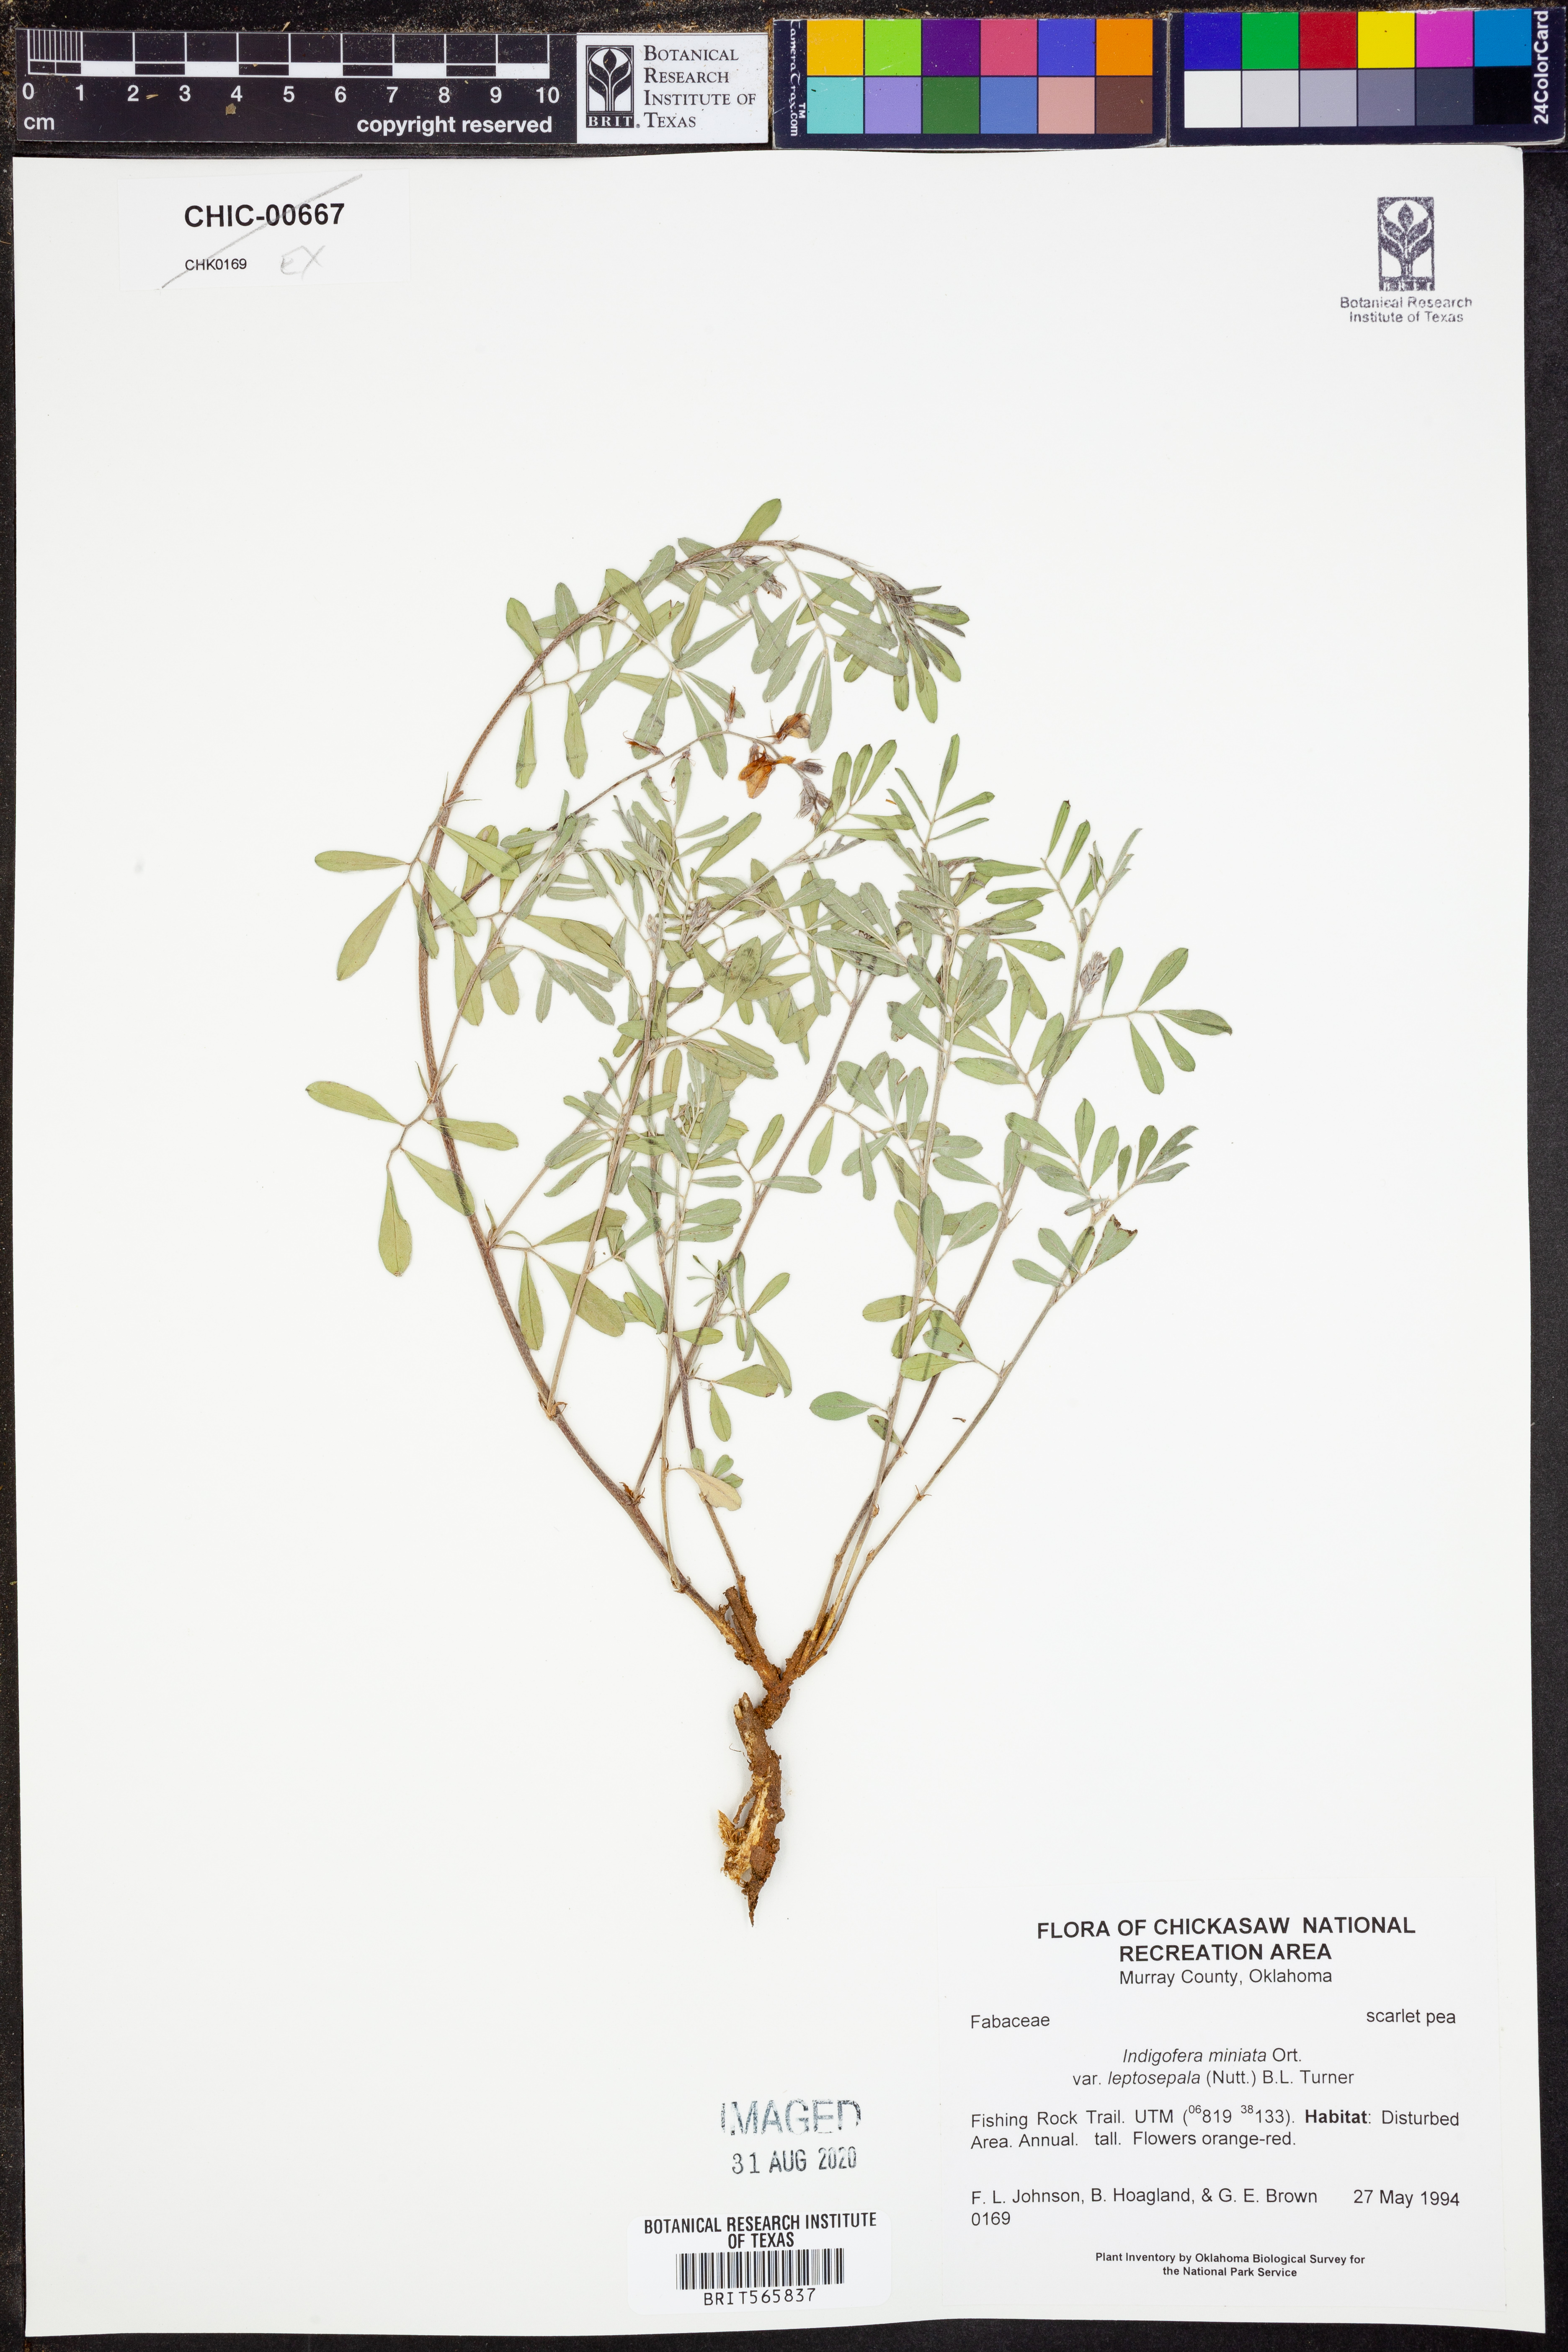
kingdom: Plantae
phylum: Tracheophyta
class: Magnoliopsida
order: Fabales
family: Fabaceae
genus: Indigofera
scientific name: Indigofera miniata
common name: Coast indigo
